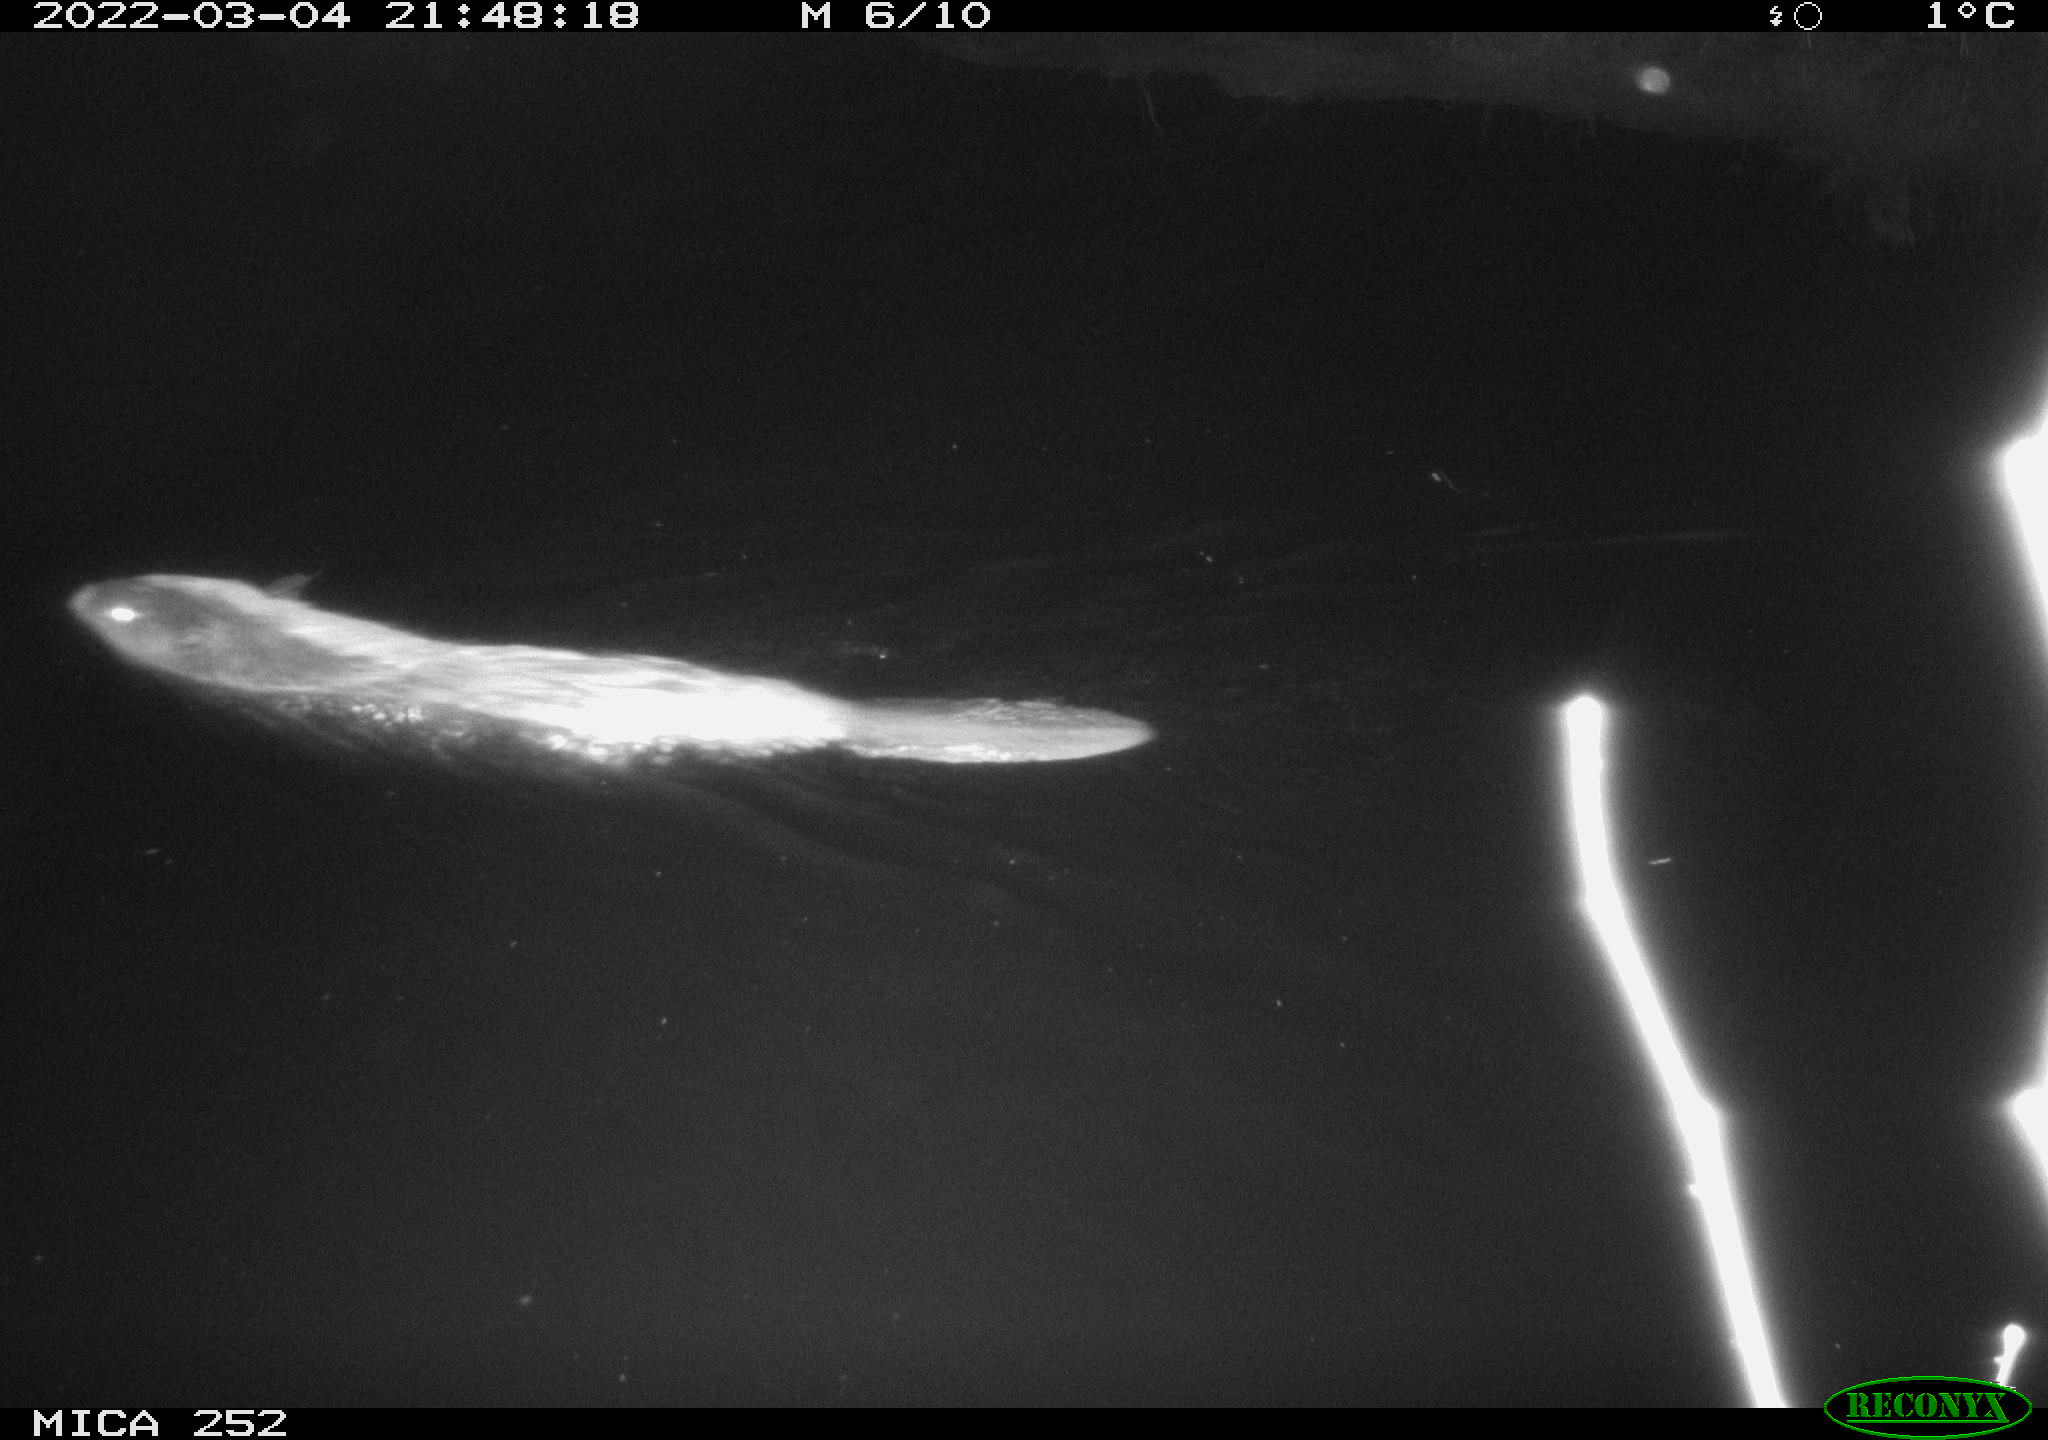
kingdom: Animalia
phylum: Chordata
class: Mammalia
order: Rodentia
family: Castoridae
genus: Castor
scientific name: Castor fiber
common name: Eurasian beaver
